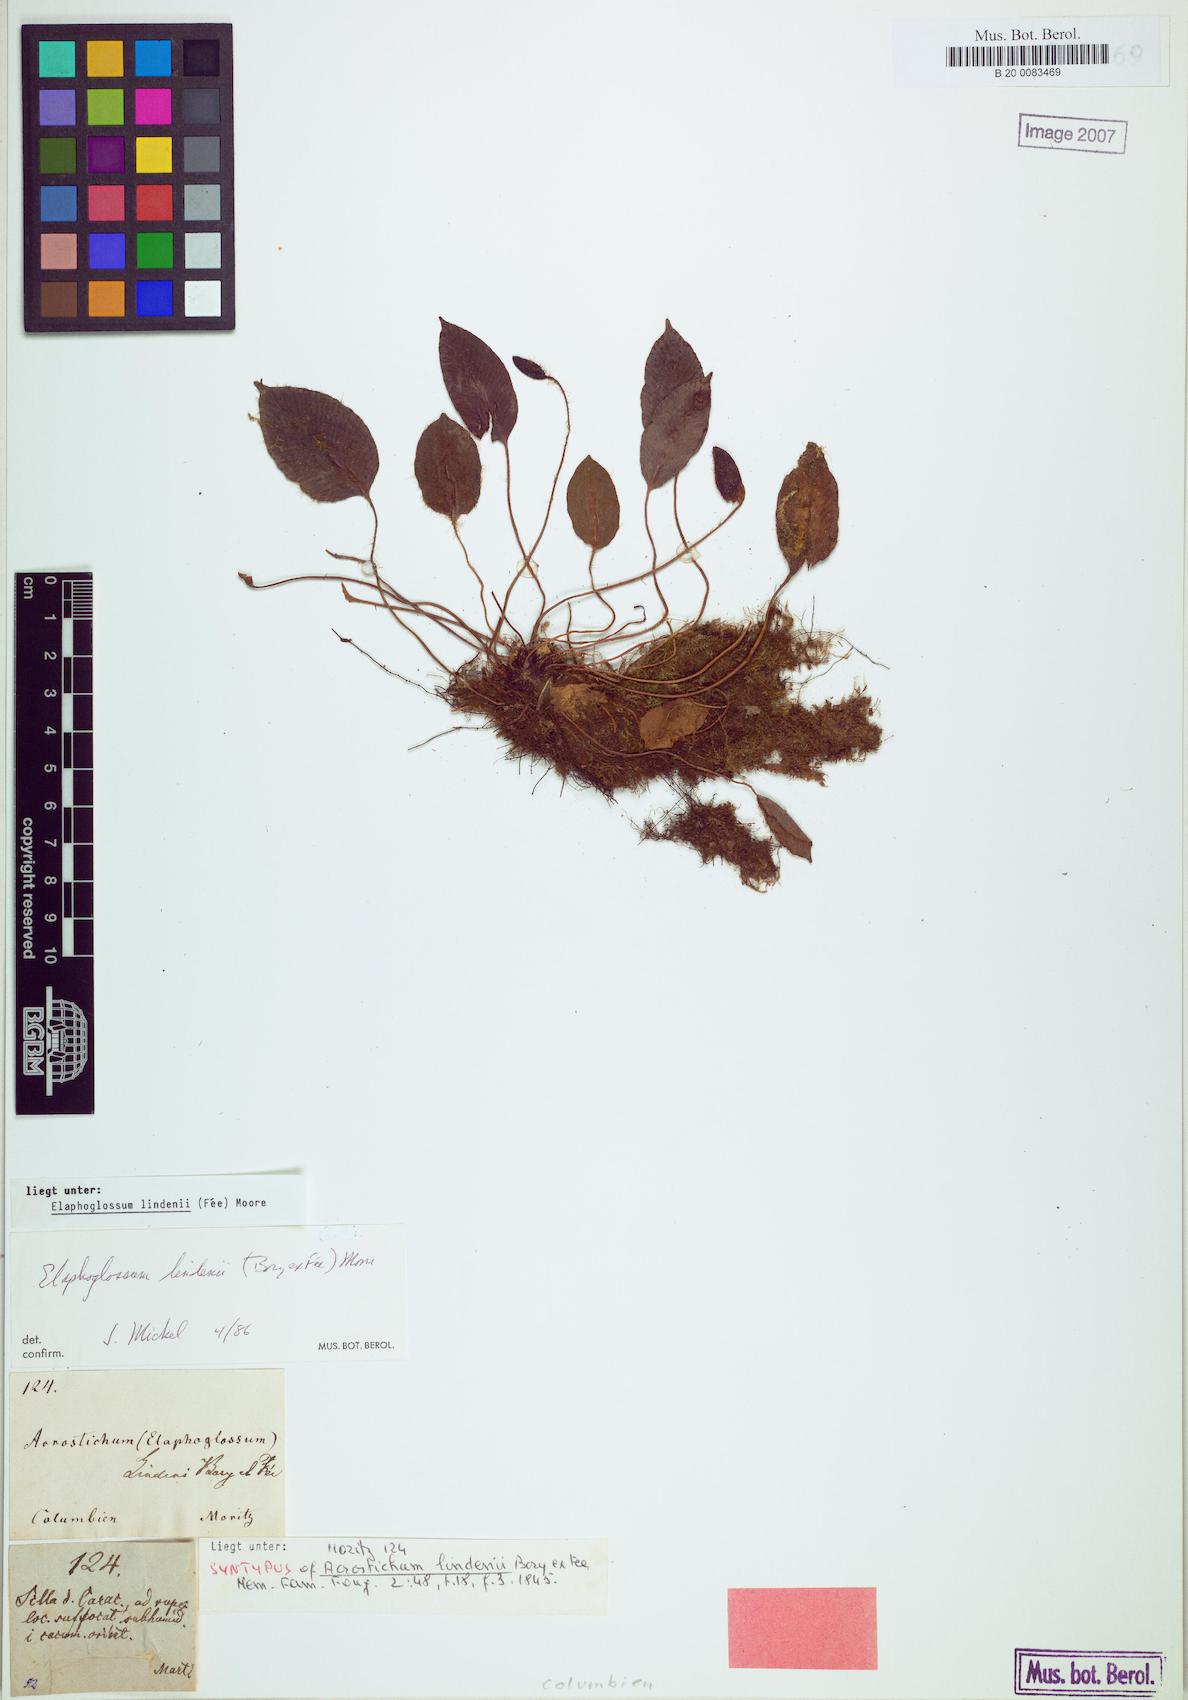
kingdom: Plantae
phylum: Tracheophyta
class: Polypodiopsida
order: Polypodiales
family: Dryopteridaceae
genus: Elaphoglossum
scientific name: Elaphoglossum lindenii
